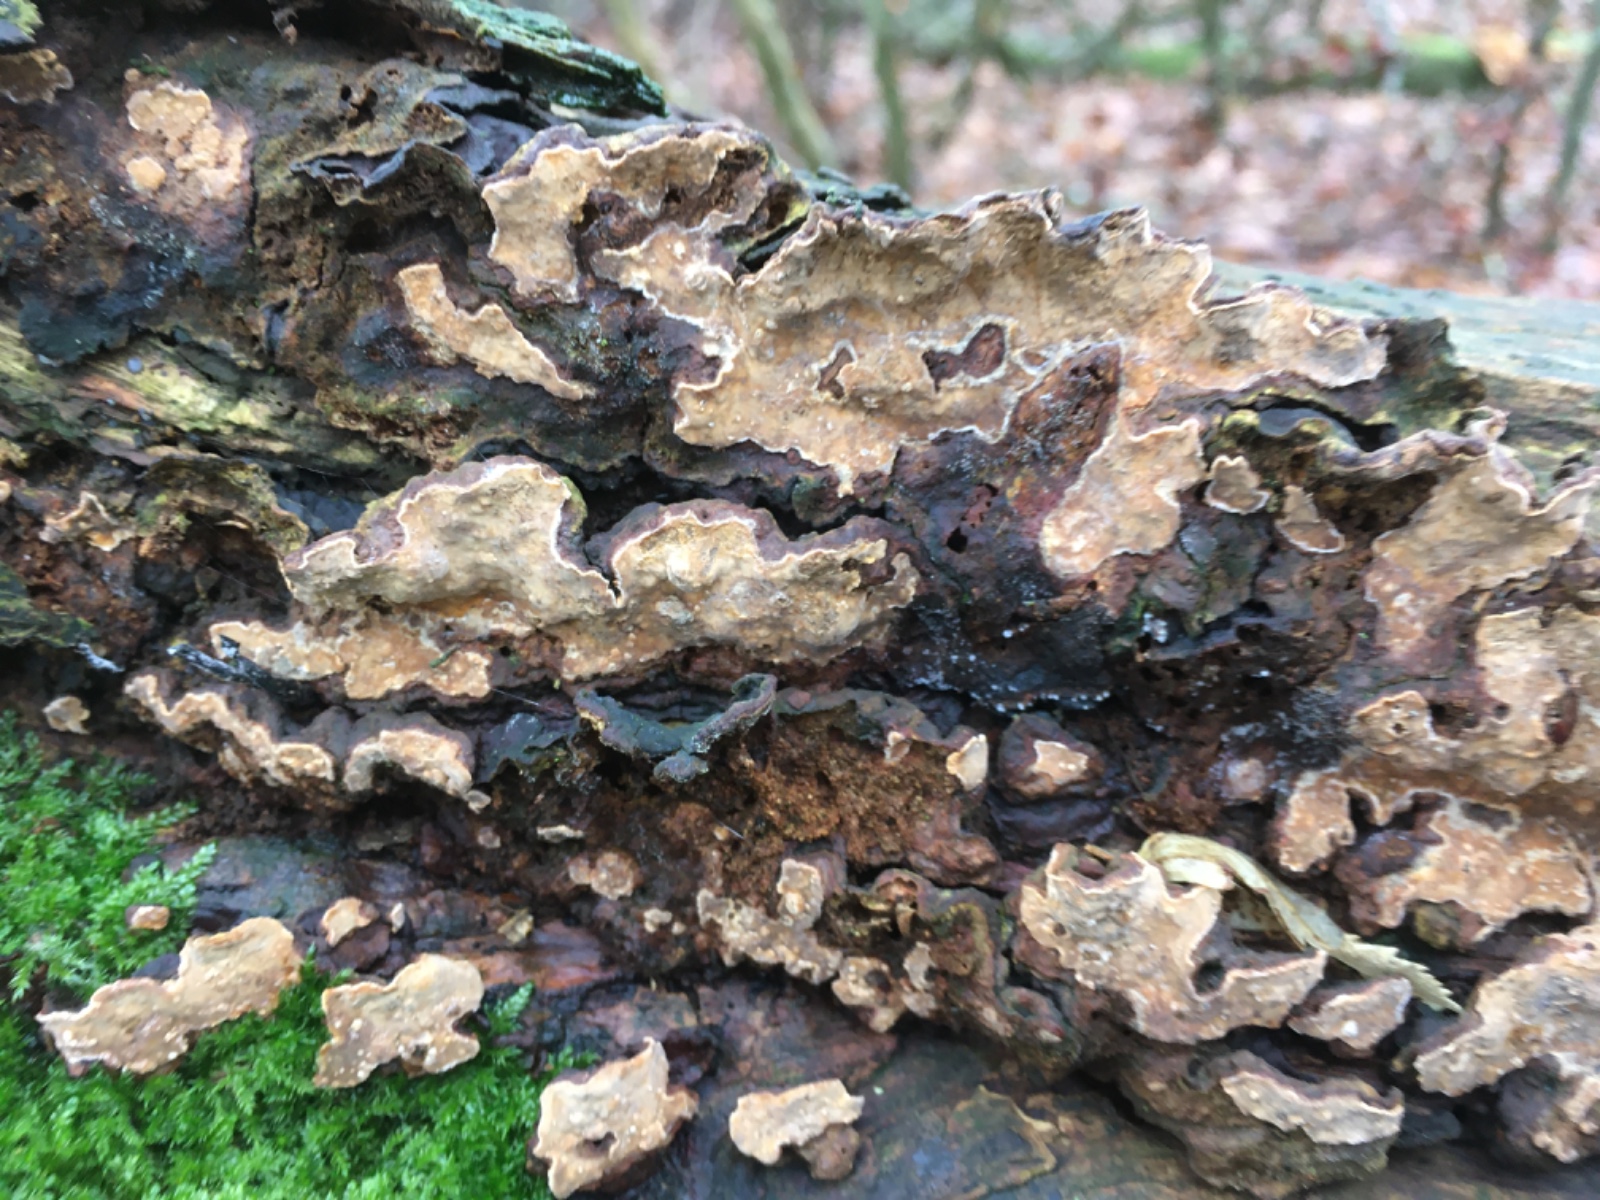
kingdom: Fungi
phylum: Basidiomycota
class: Agaricomycetes
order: Russulales
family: Stereaceae
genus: Stereum
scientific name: Stereum rugosum
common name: rynket lædersvamp
